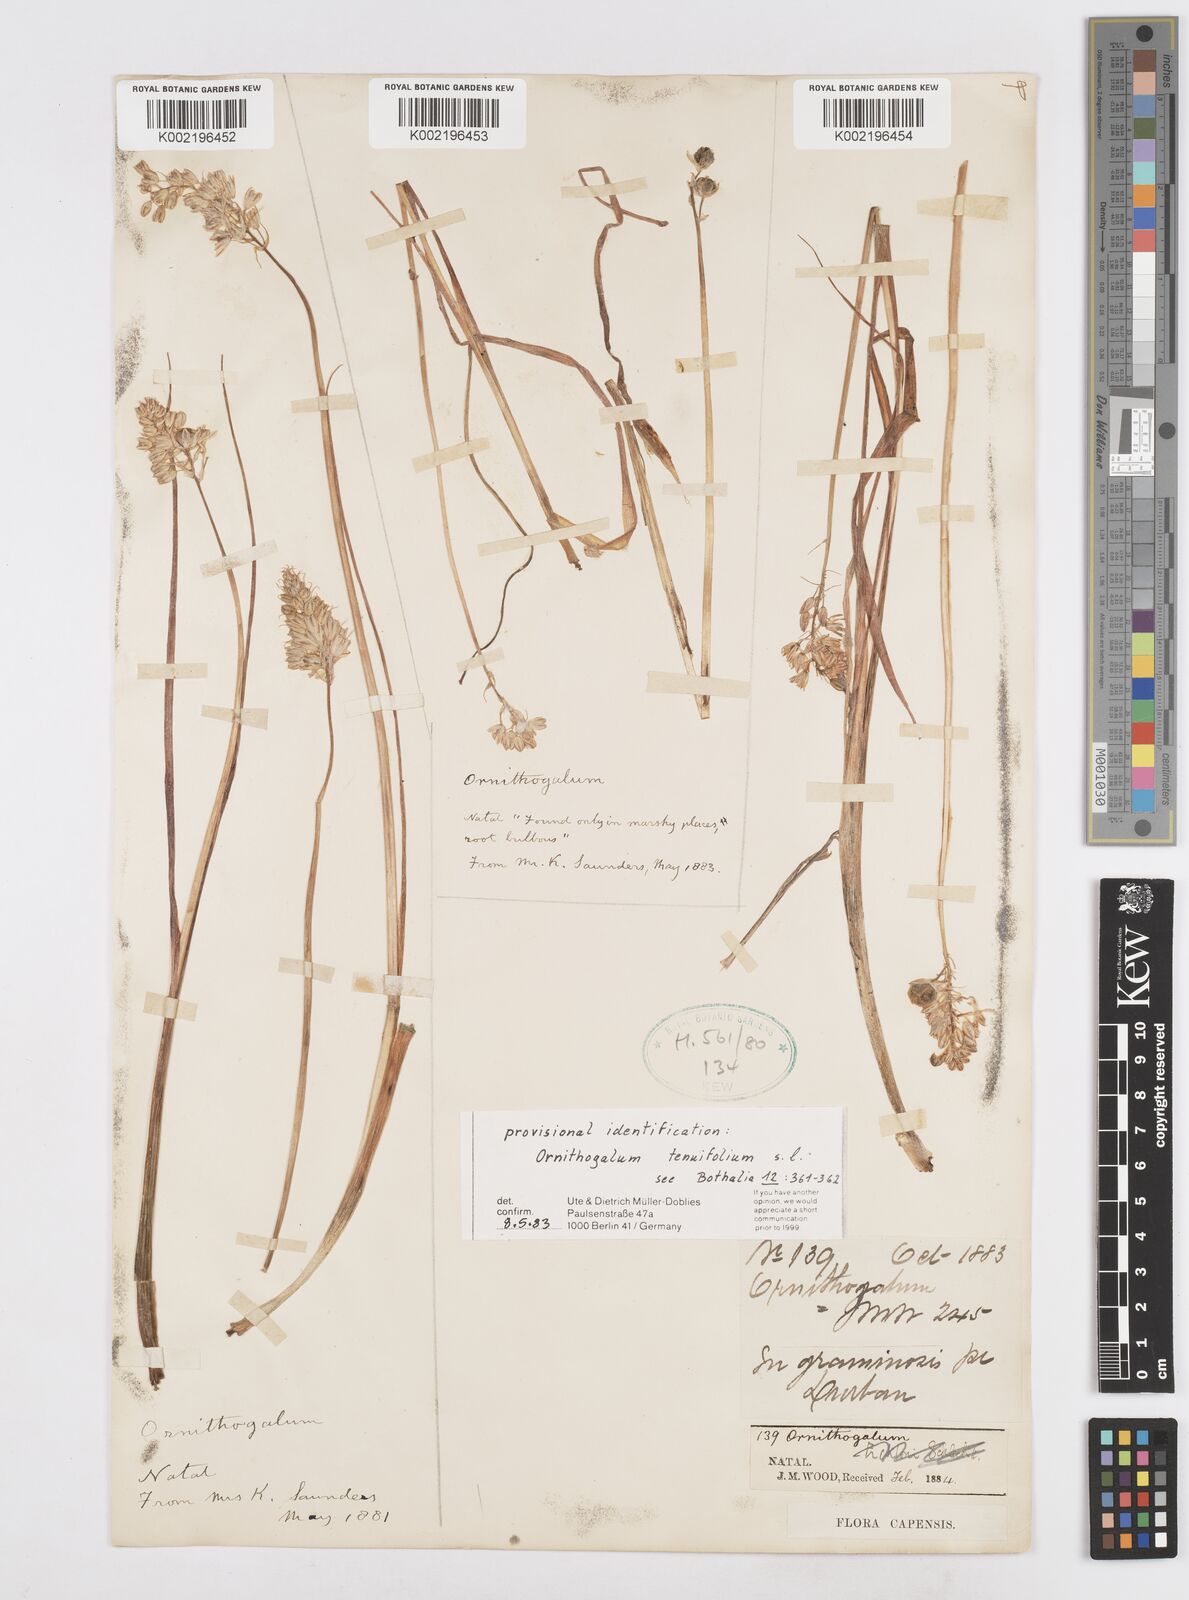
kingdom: Plantae
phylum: Tracheophyta
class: Liliopsida
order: Asparagales
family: Asparagaceae
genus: Albuca
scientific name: Albuca virens
